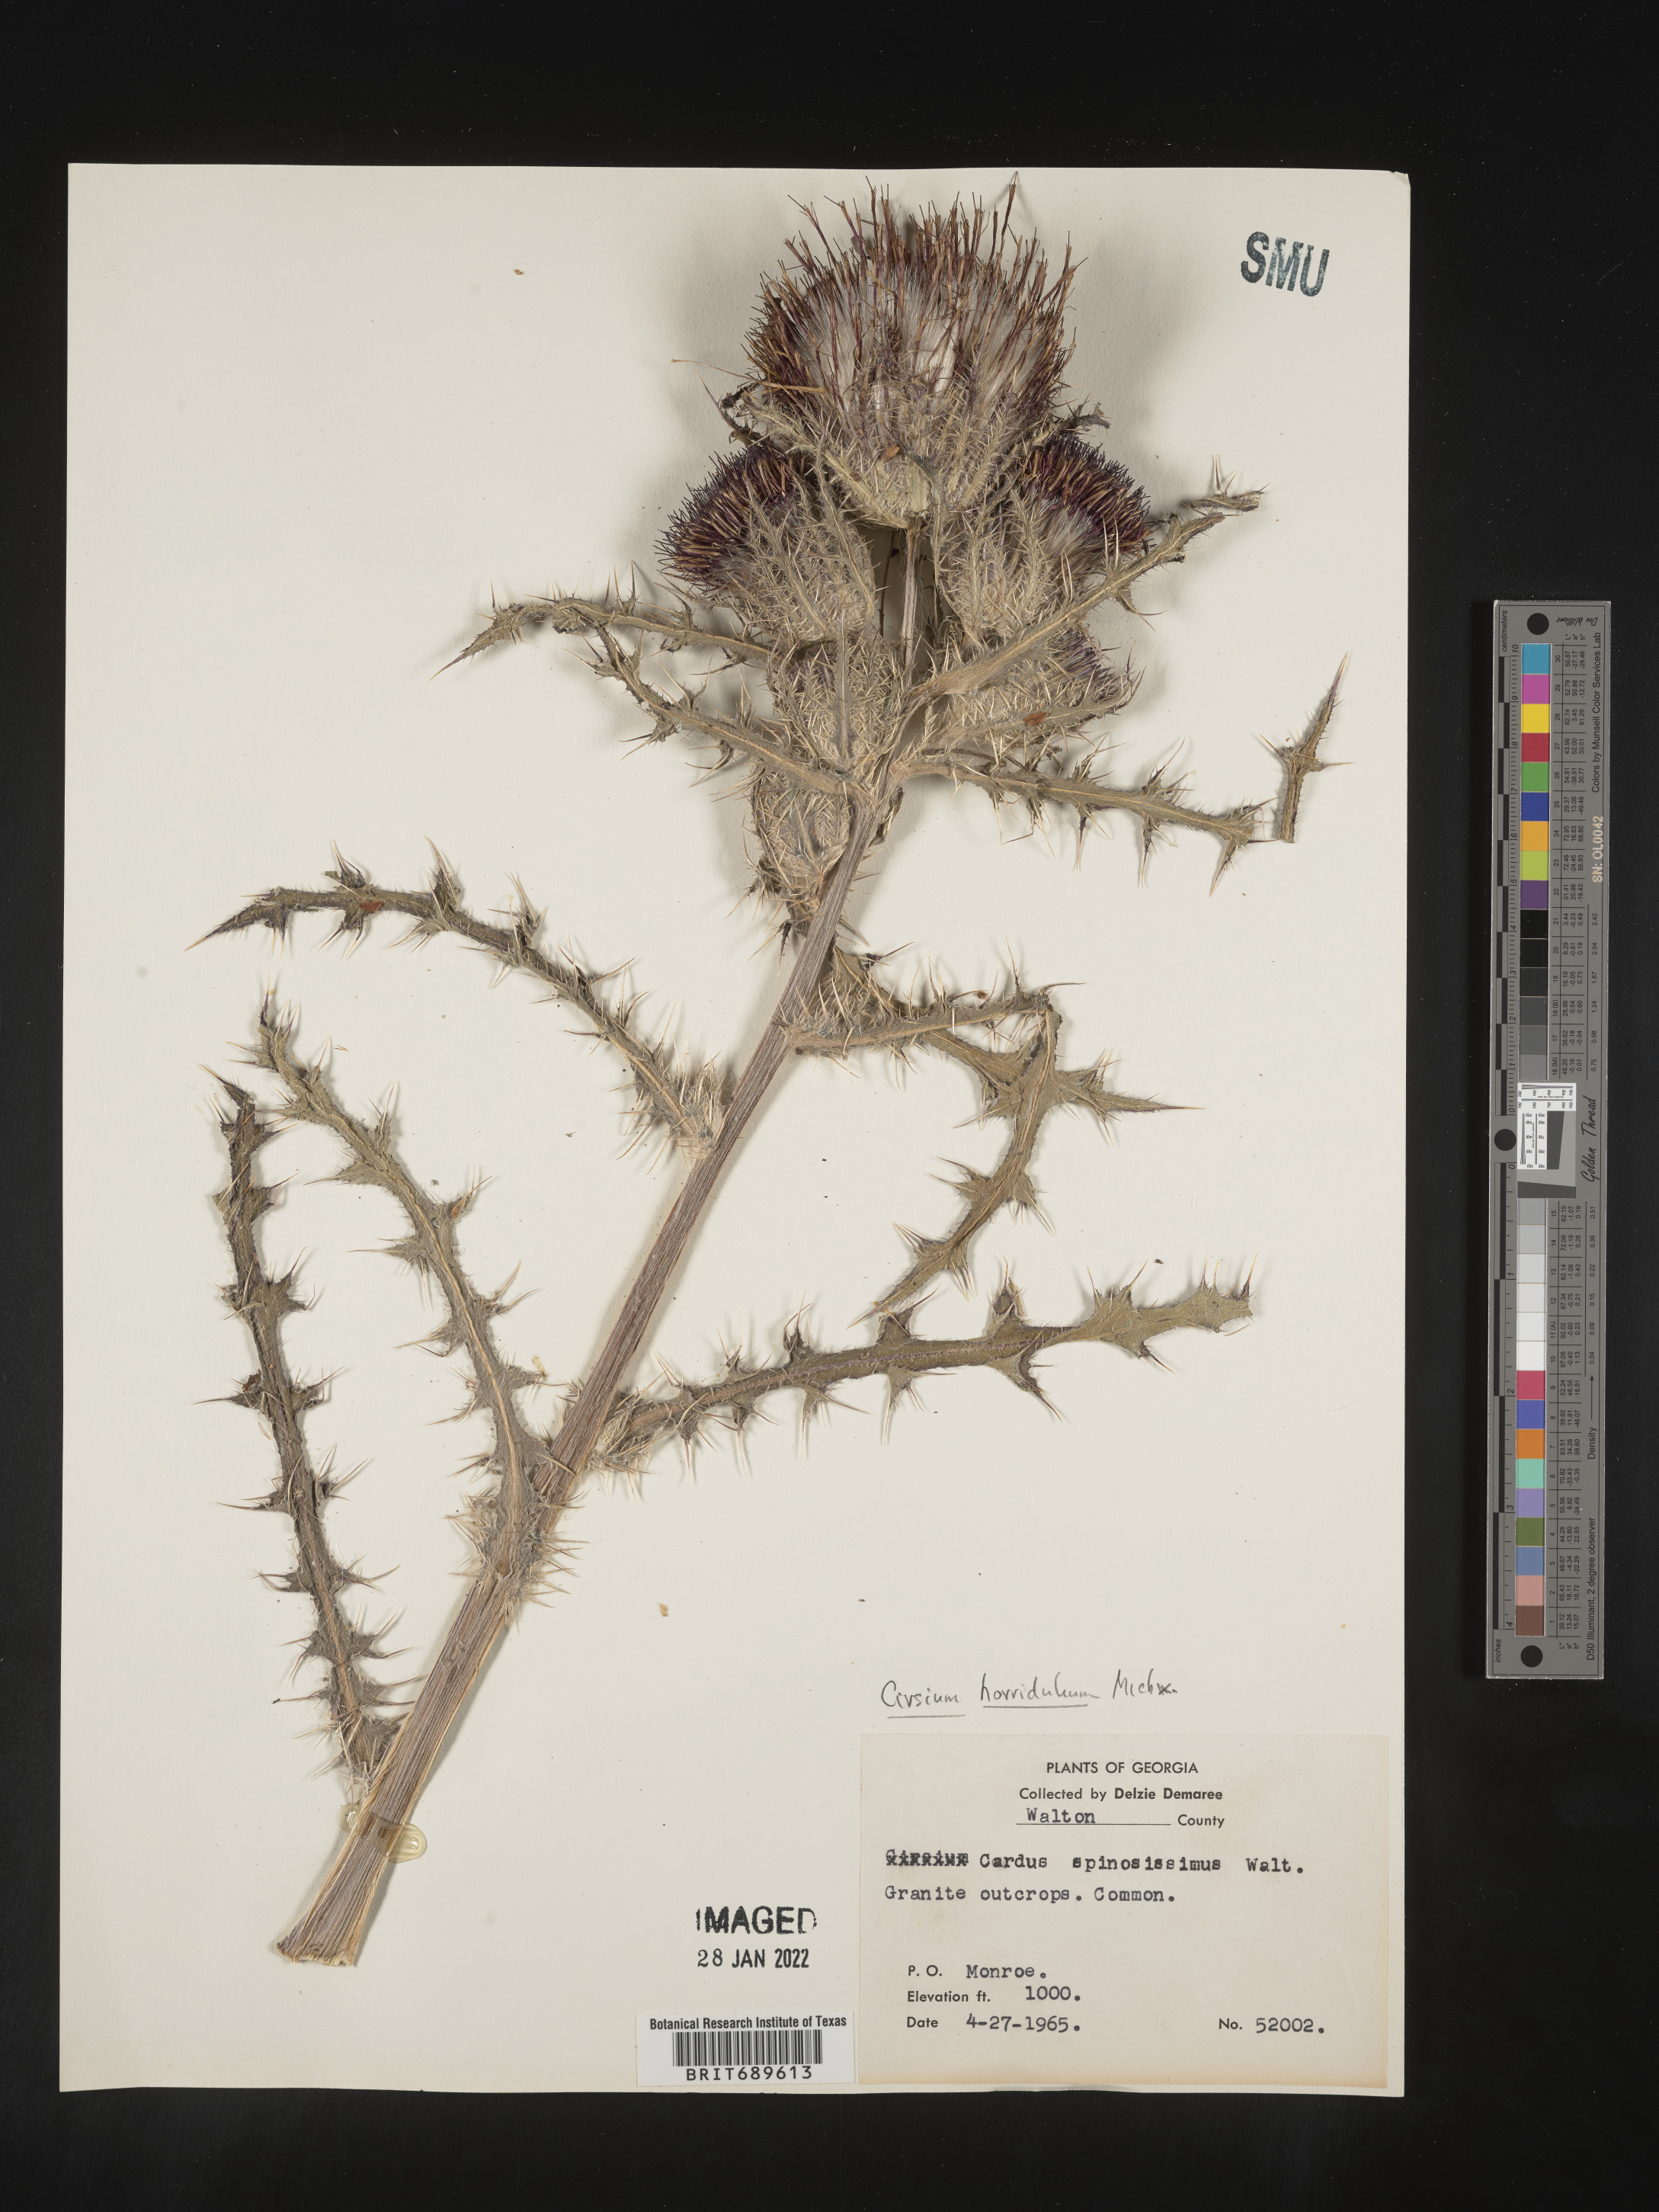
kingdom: Plantae
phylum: Tracheophyta
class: Magnoliopsida
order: Asterales
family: Asteraceae
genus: Cirsium
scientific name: Cirsium horridulum
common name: Bristly thistle
